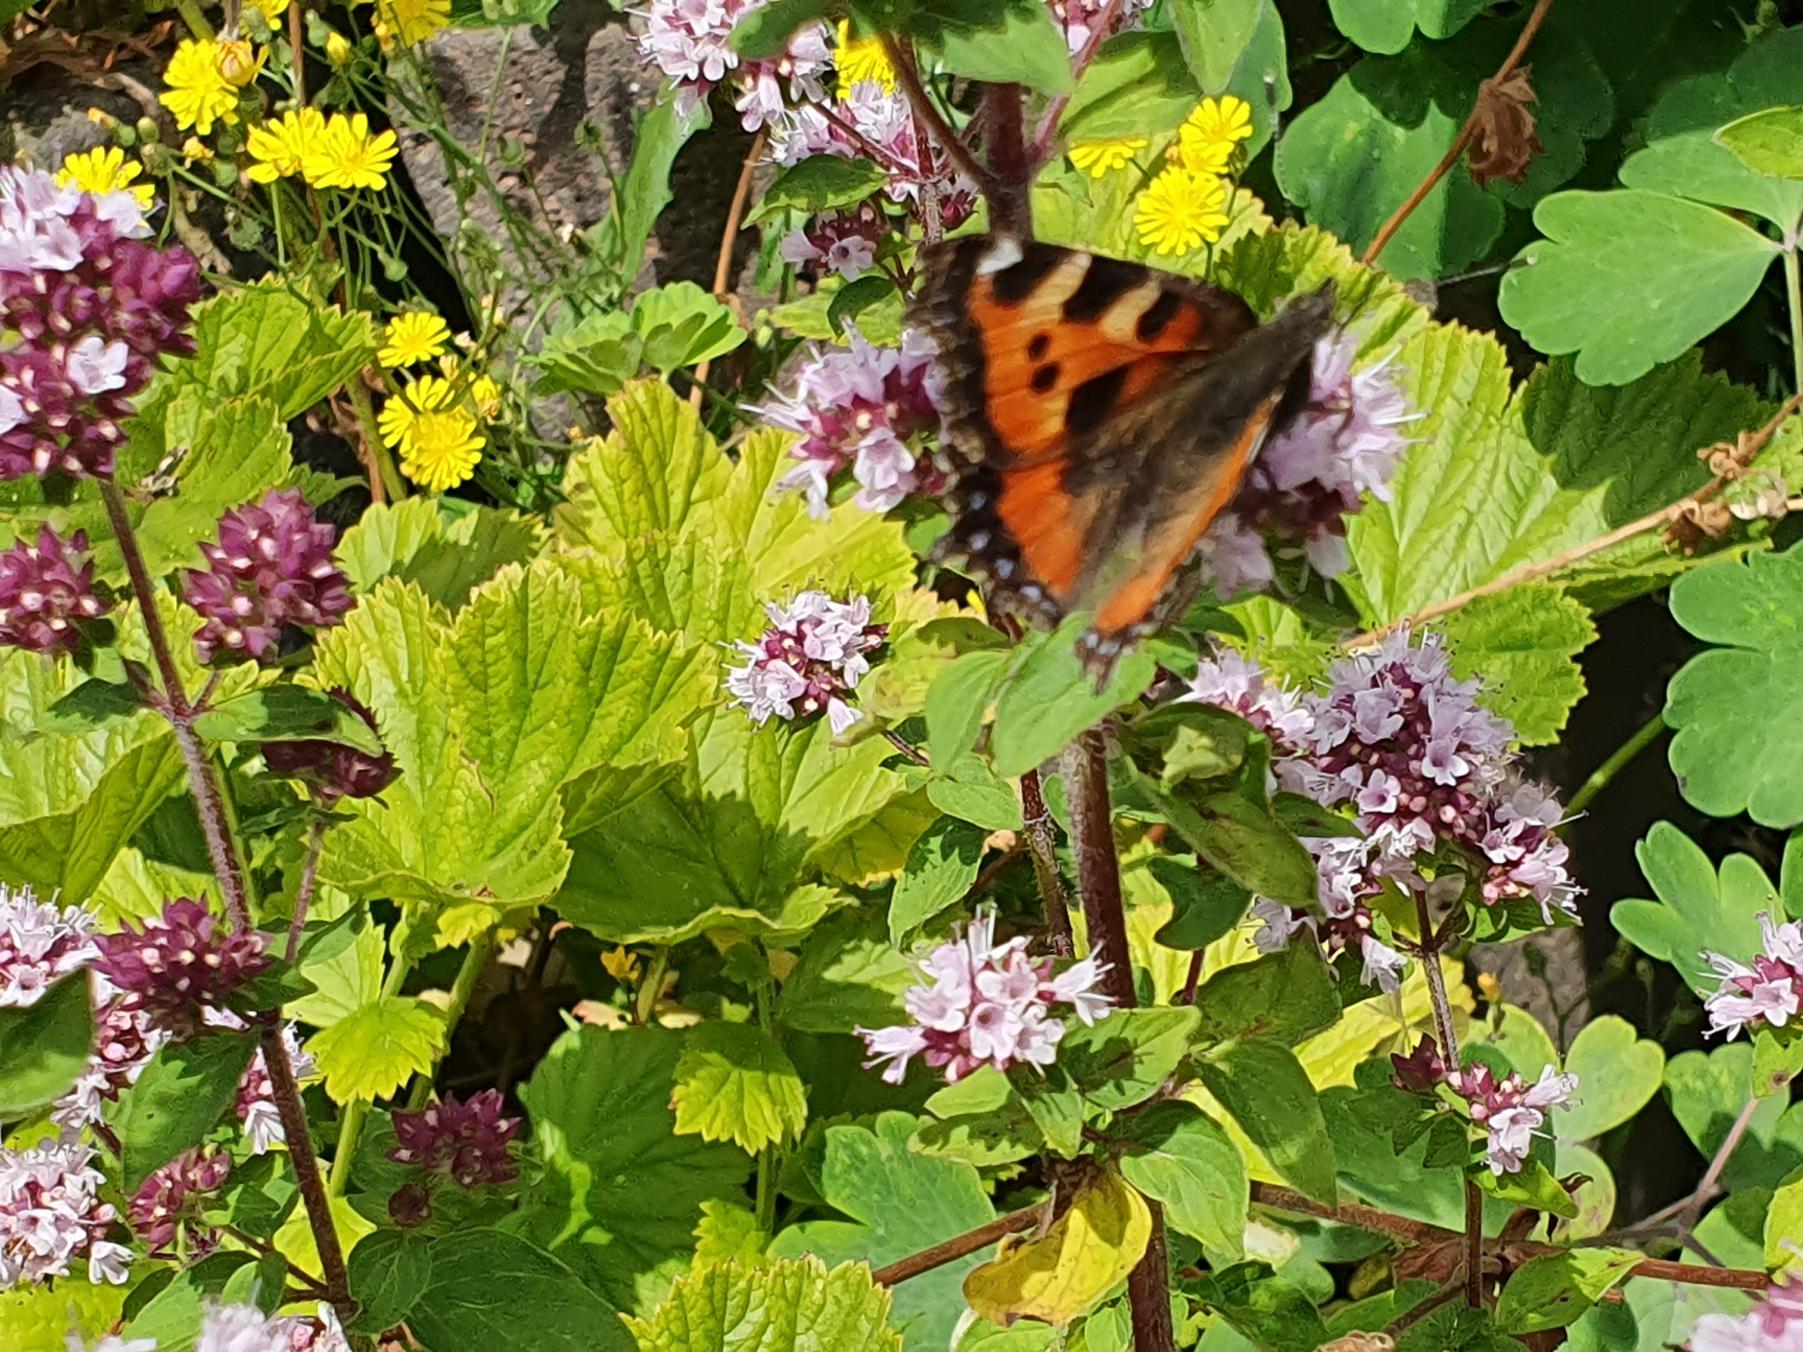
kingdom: Animalia
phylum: Arthropoda
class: Insecta
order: Lepidoptera
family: Nymphalidae
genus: Aglais
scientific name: Aglais urticae
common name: Nældens takvinge
